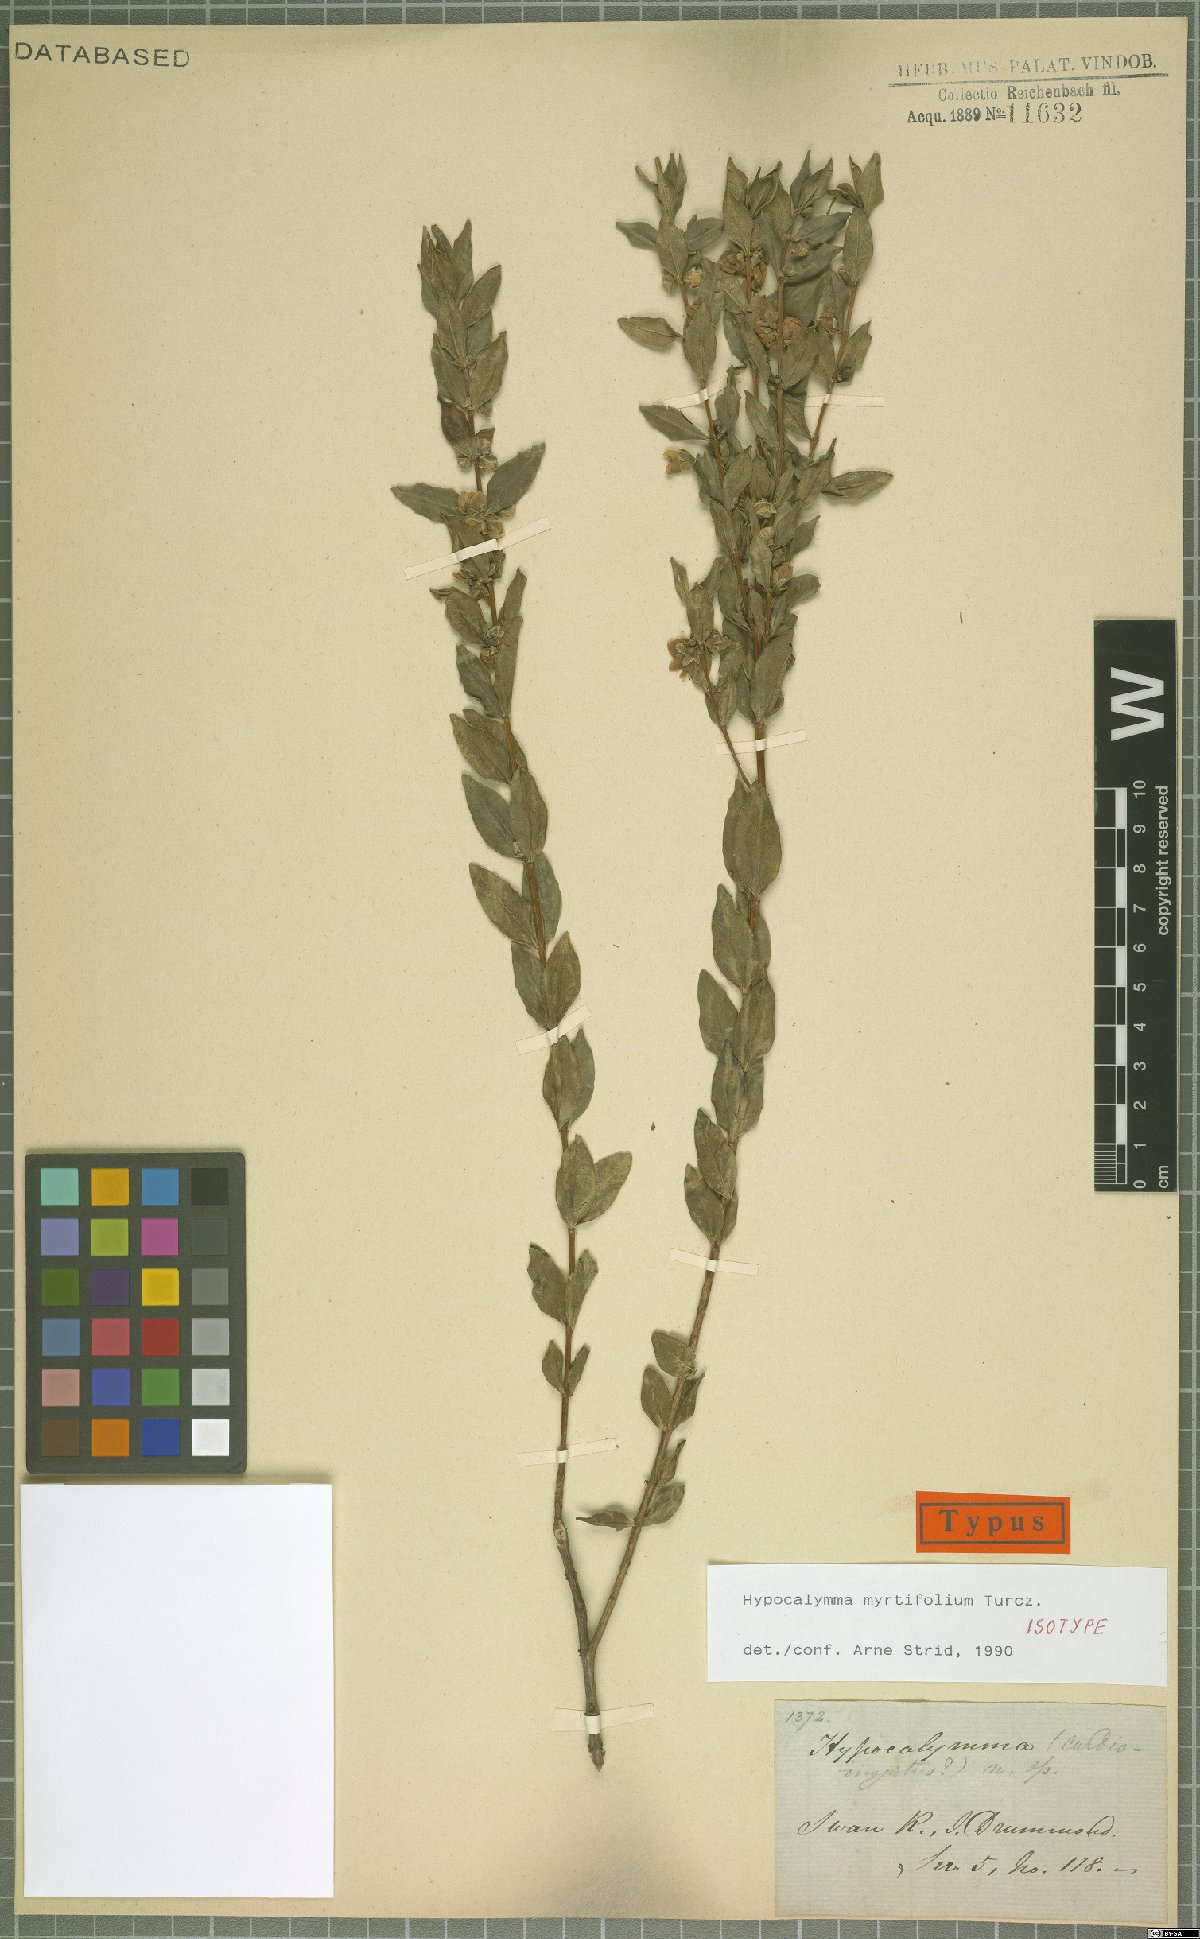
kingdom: Plantae
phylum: Tracheophyta
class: Magnoliopsida
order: Myrtales
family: Myrtaceae
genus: Hypocalymma
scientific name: Hypocalymma myrtifolium
